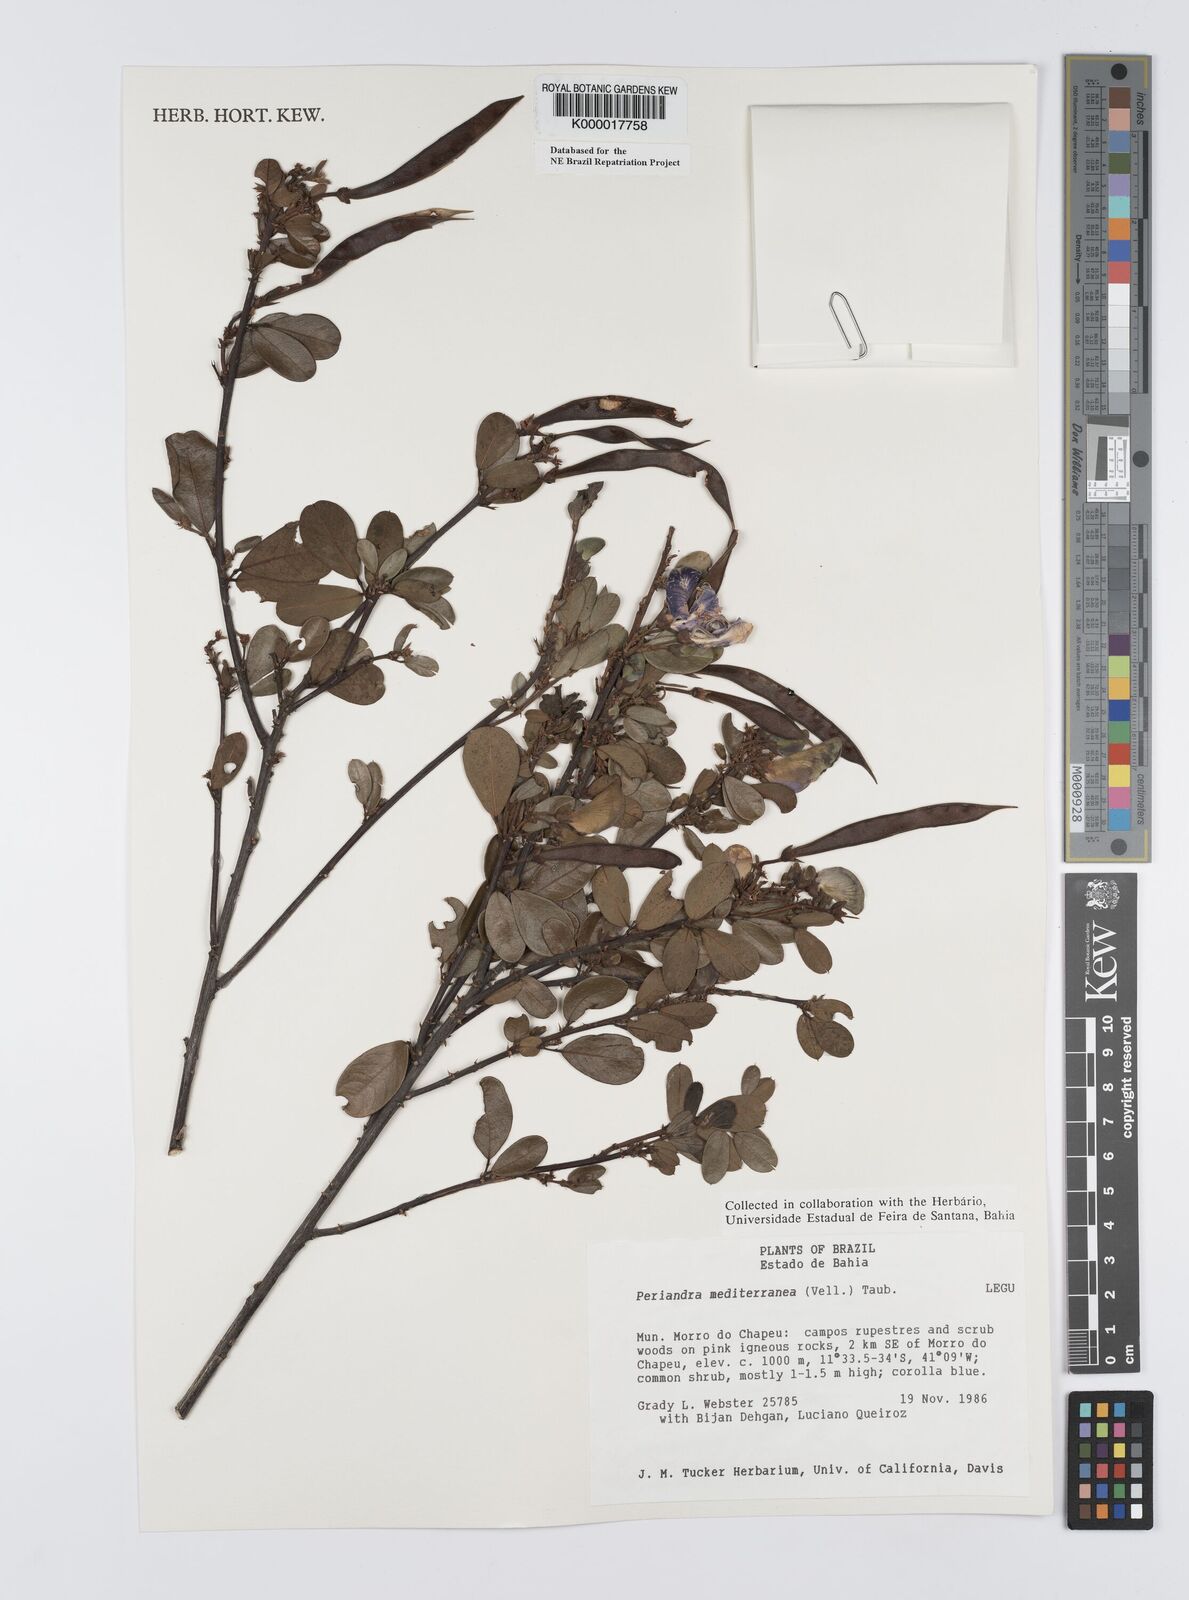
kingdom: Plantae
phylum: Tracheophyta
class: Magnoliopsida
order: Fabales
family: Fabaceae
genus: Periandra
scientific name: Periandra mediterranea
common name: Brazilian licorice
